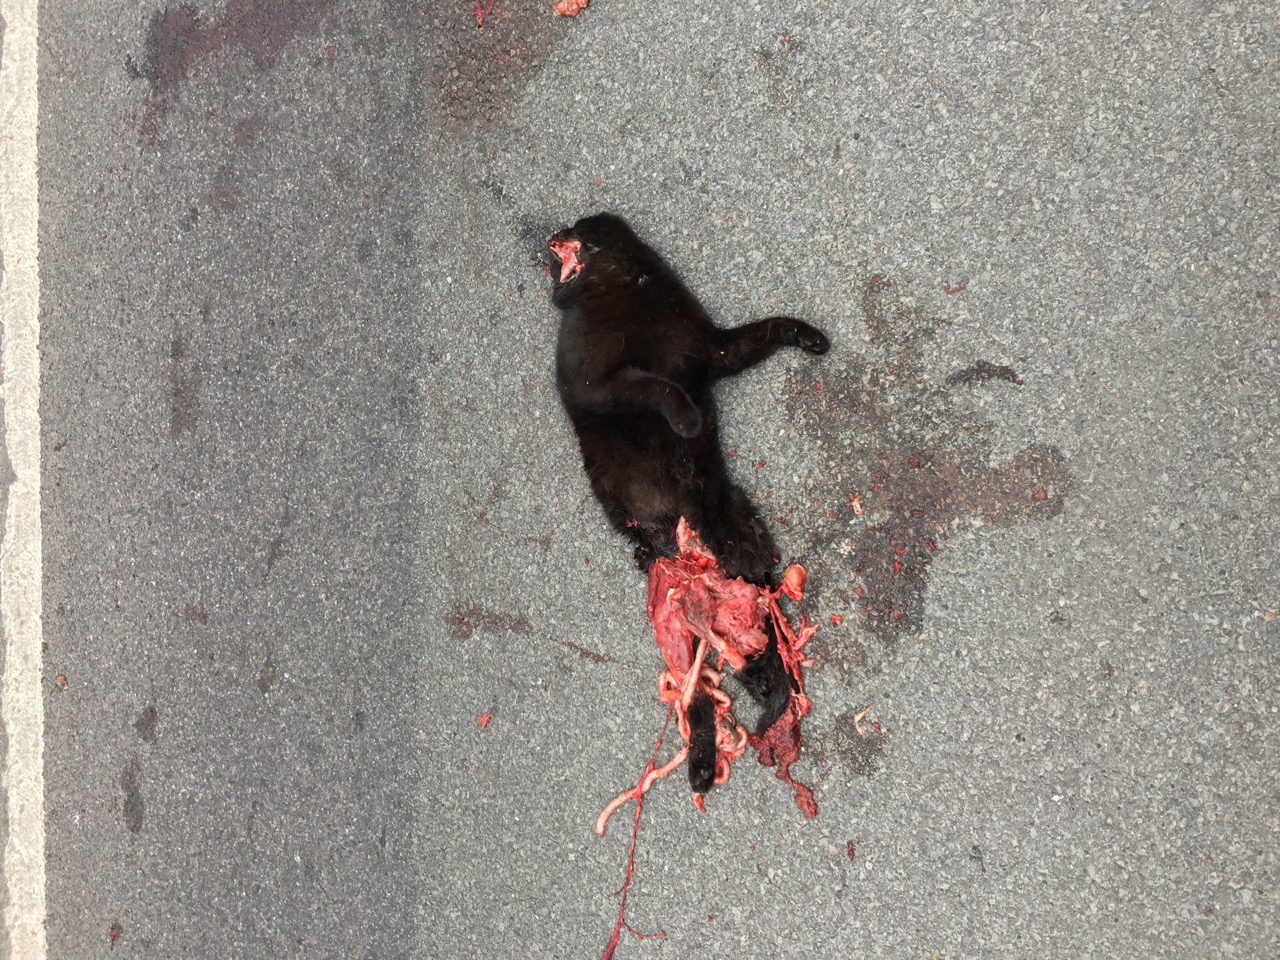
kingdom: Animalia
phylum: Chordata
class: Mammalia
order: Carnivora
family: Felidae
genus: Felis
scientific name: Felis catus
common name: Domestic cat
